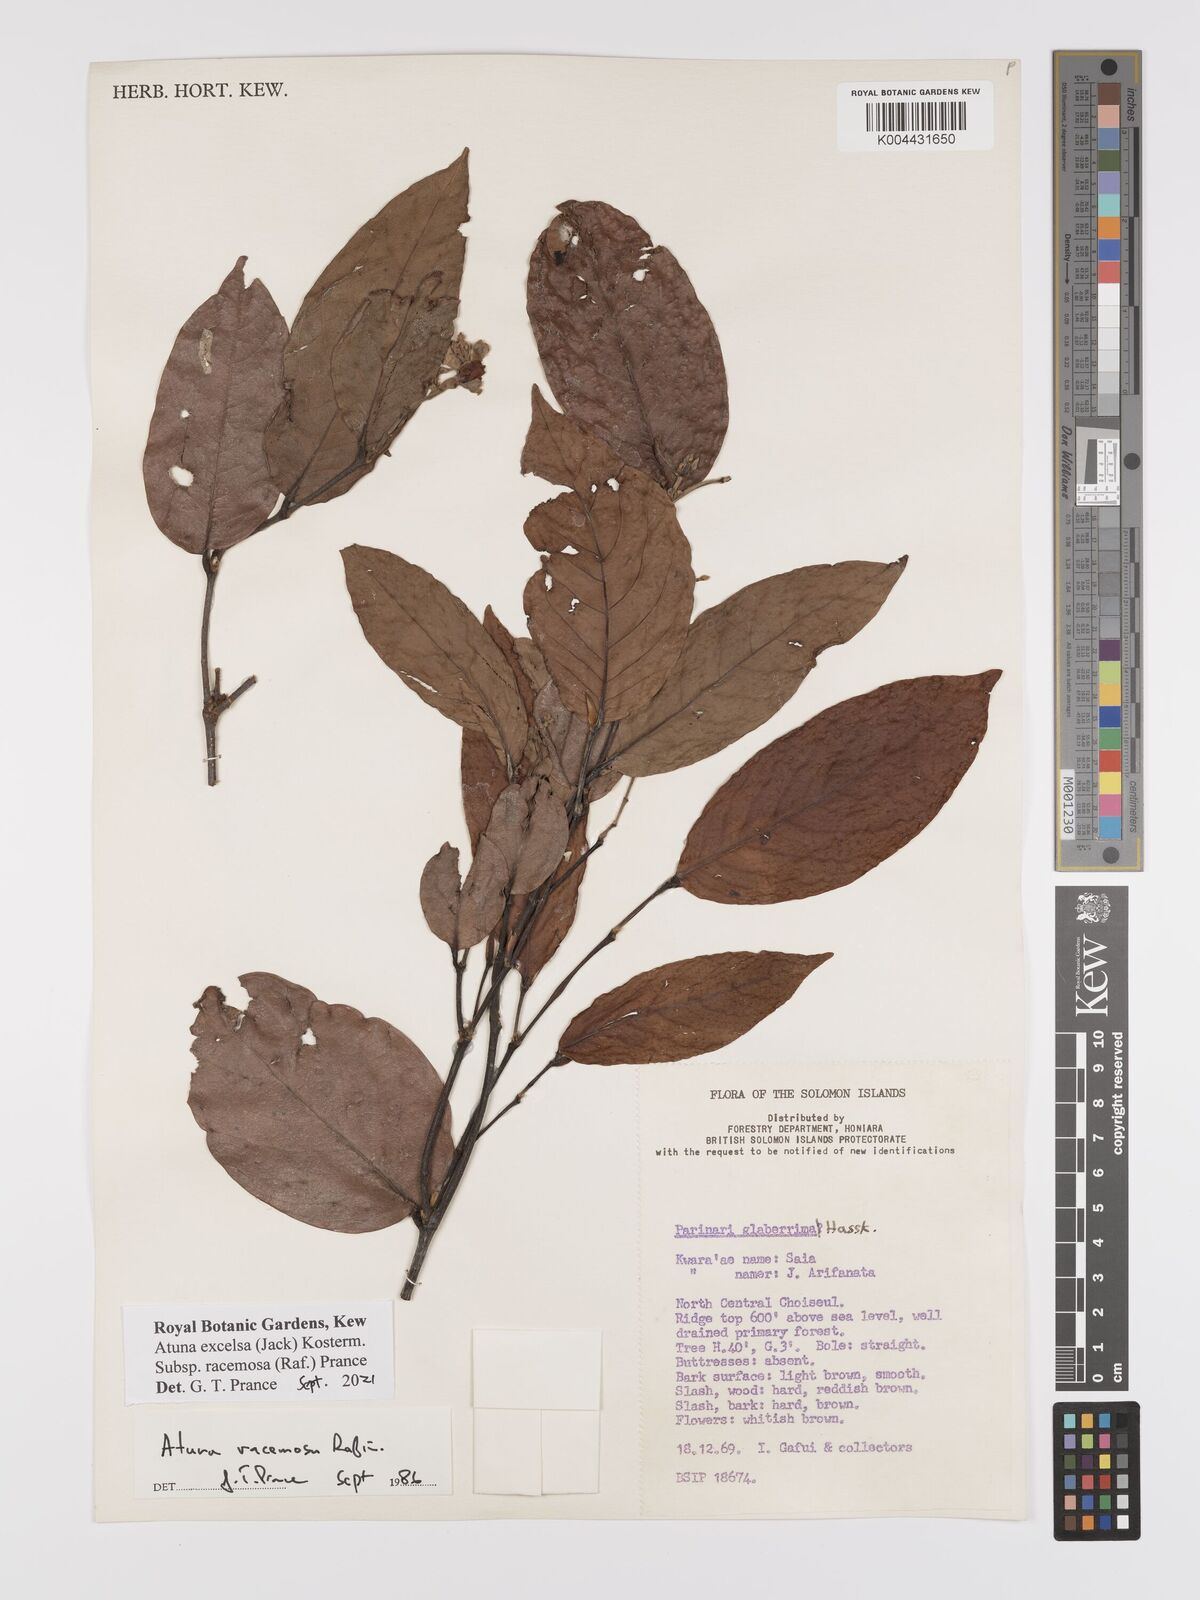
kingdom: Plantae
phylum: Tracheophyta
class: Magnoliopsida
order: Malpighiales
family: Chrysobalanaceae
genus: Atuna
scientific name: Atuna excelsa
